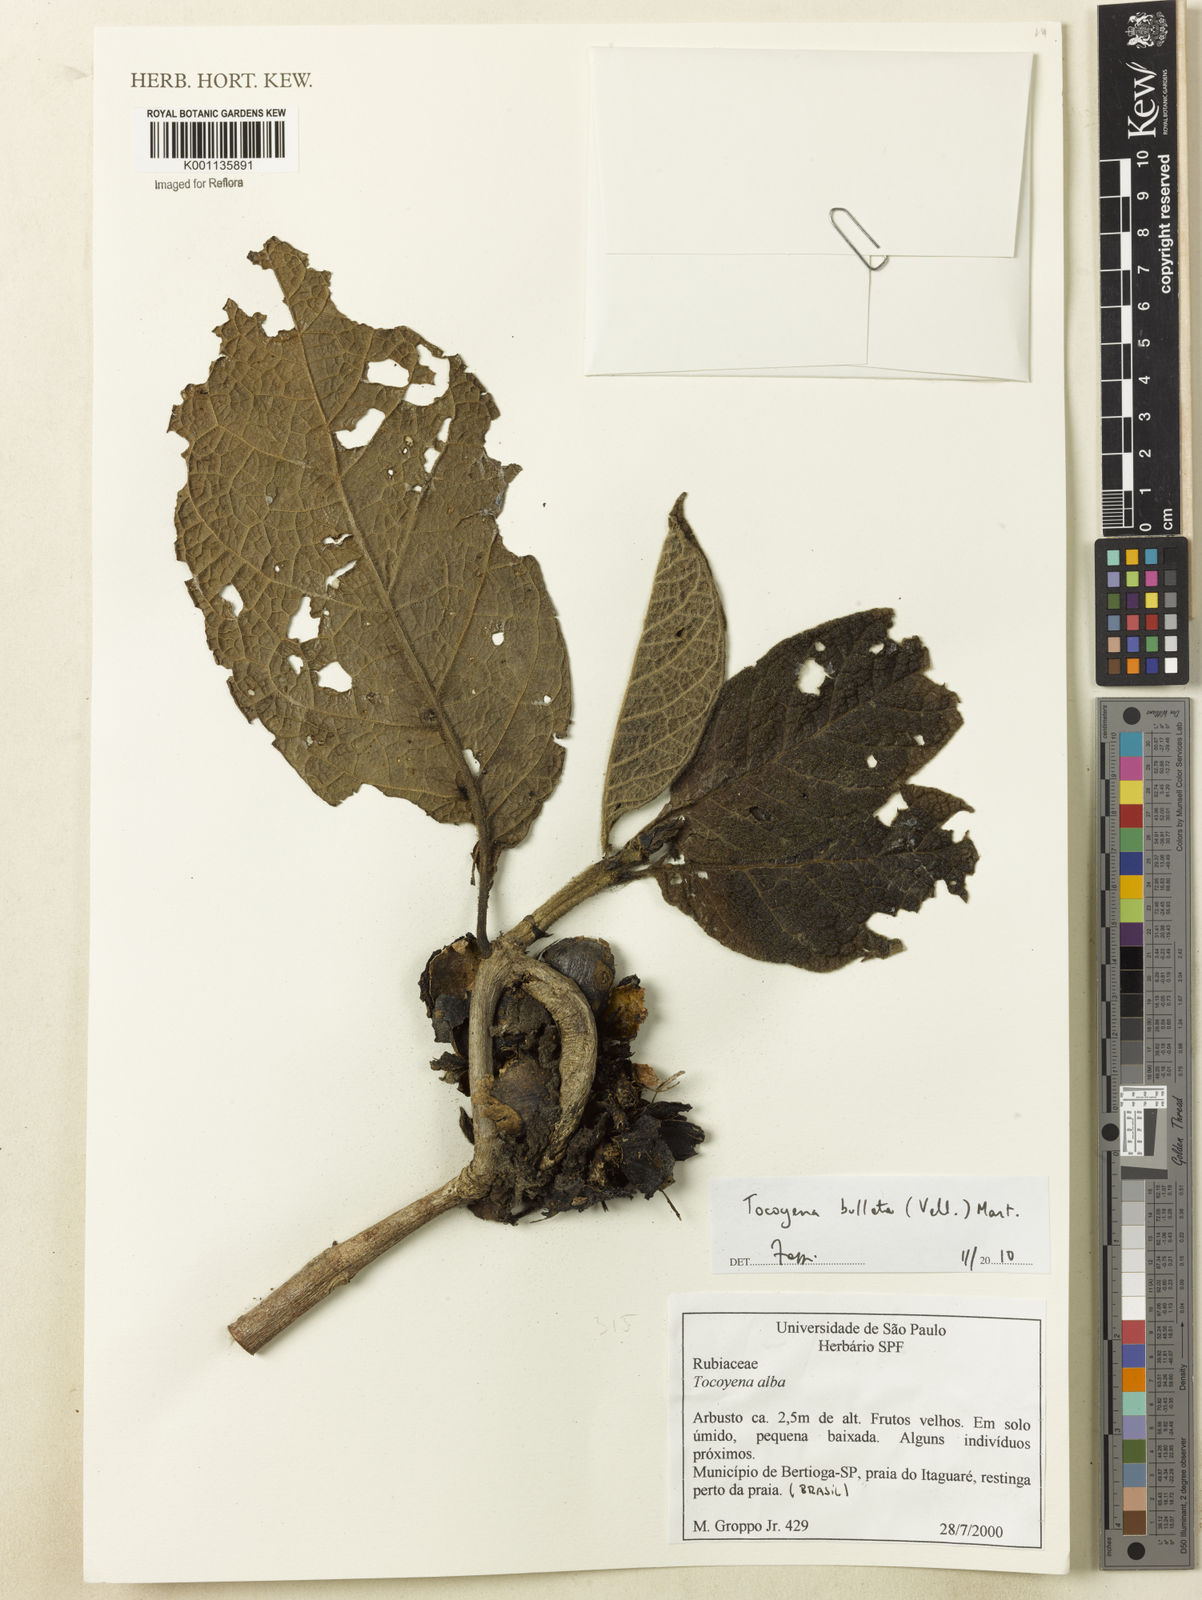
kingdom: Plantae
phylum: Tracheophyta
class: Magnoliopsida
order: Gentianales
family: Rubiaceae
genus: Tocoyena
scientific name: Tocoyena bullata
